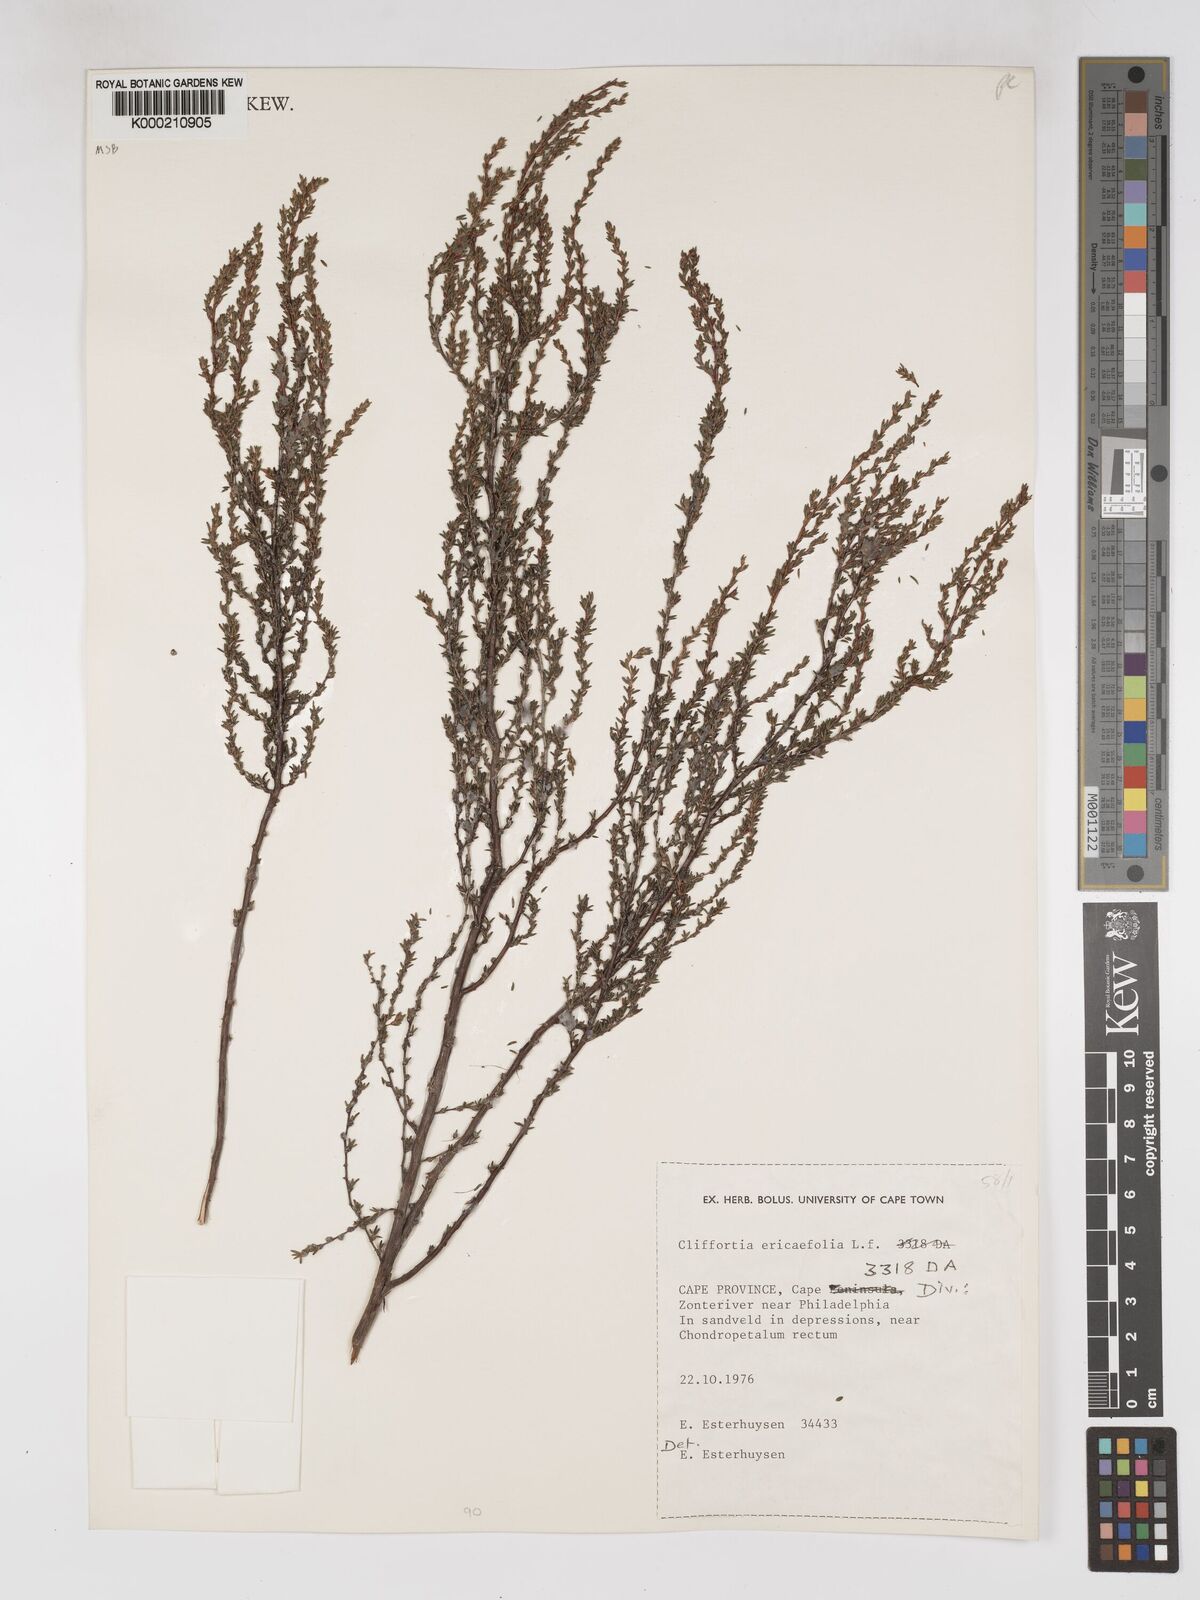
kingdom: Plantae
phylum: Tracheophyta
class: Magnoliopsida
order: Rosales
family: Rosaceae
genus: Cliffortia
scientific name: Cliffortia ericifolia
